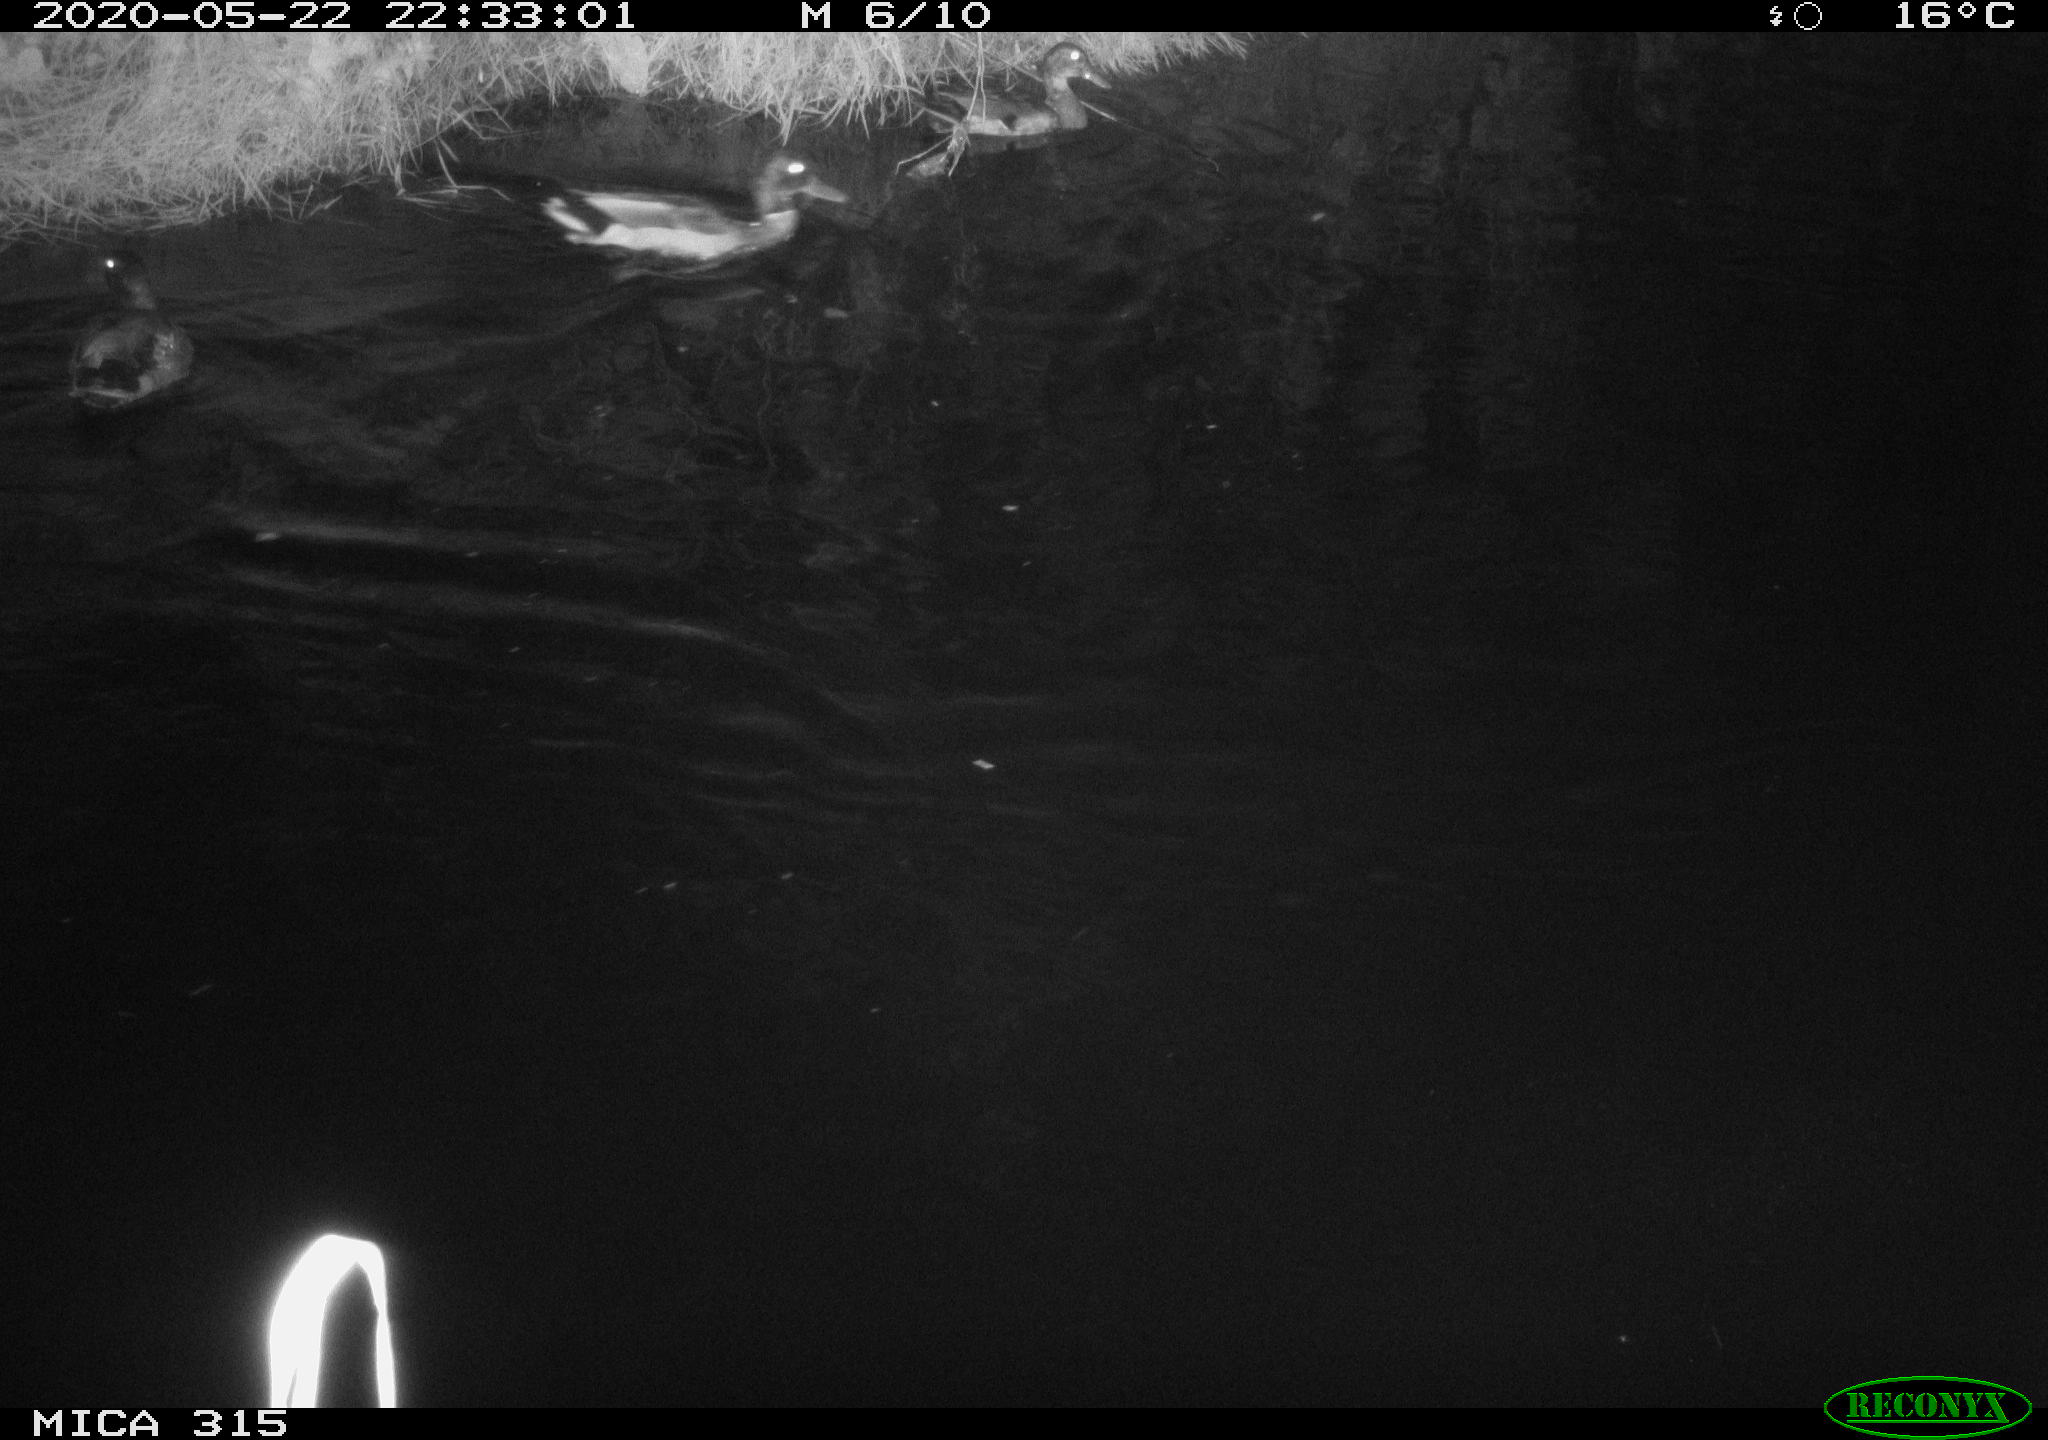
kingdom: Animalia
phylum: Chordata
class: Aves
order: Anseriformes
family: Anatidae
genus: Anas
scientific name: Anas platyrhynchos
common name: Mallard
